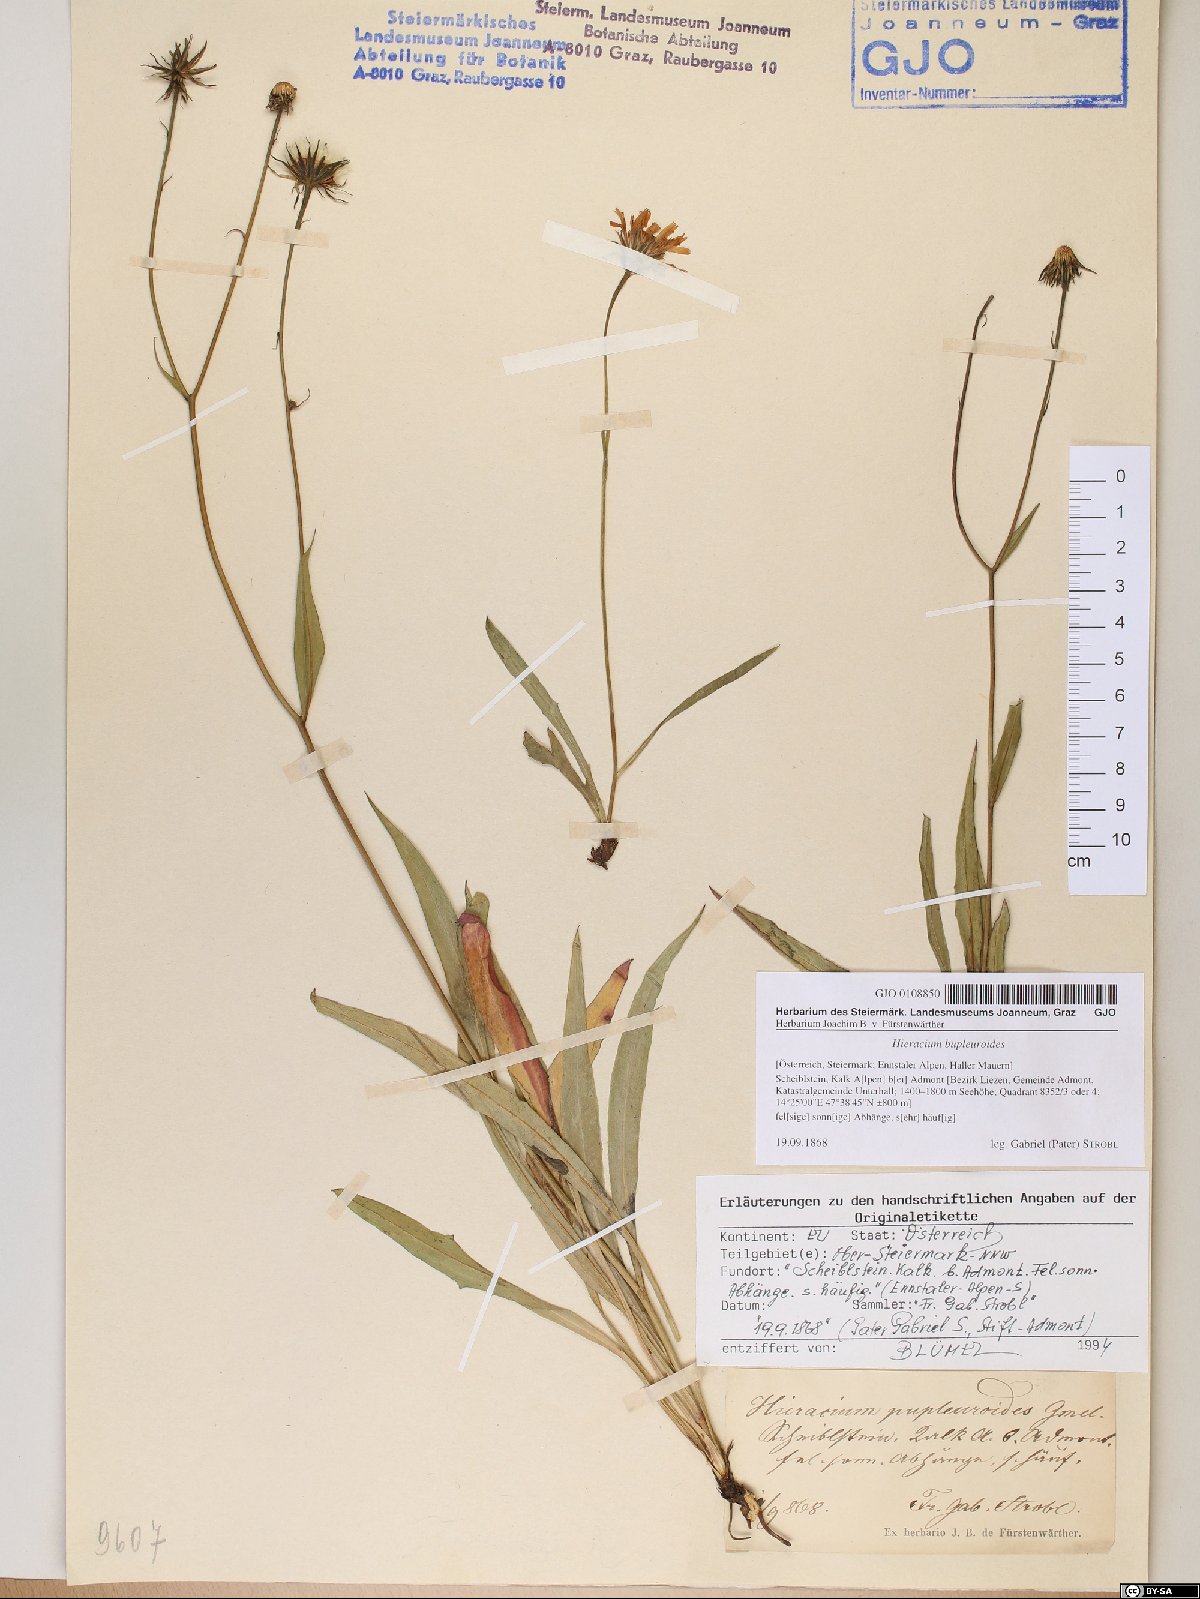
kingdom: Plantae
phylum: Tracheophyta
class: Magnoliopsida
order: Asterales
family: Asteraceae
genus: Hieracium
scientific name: Hieracium bupleuroides
